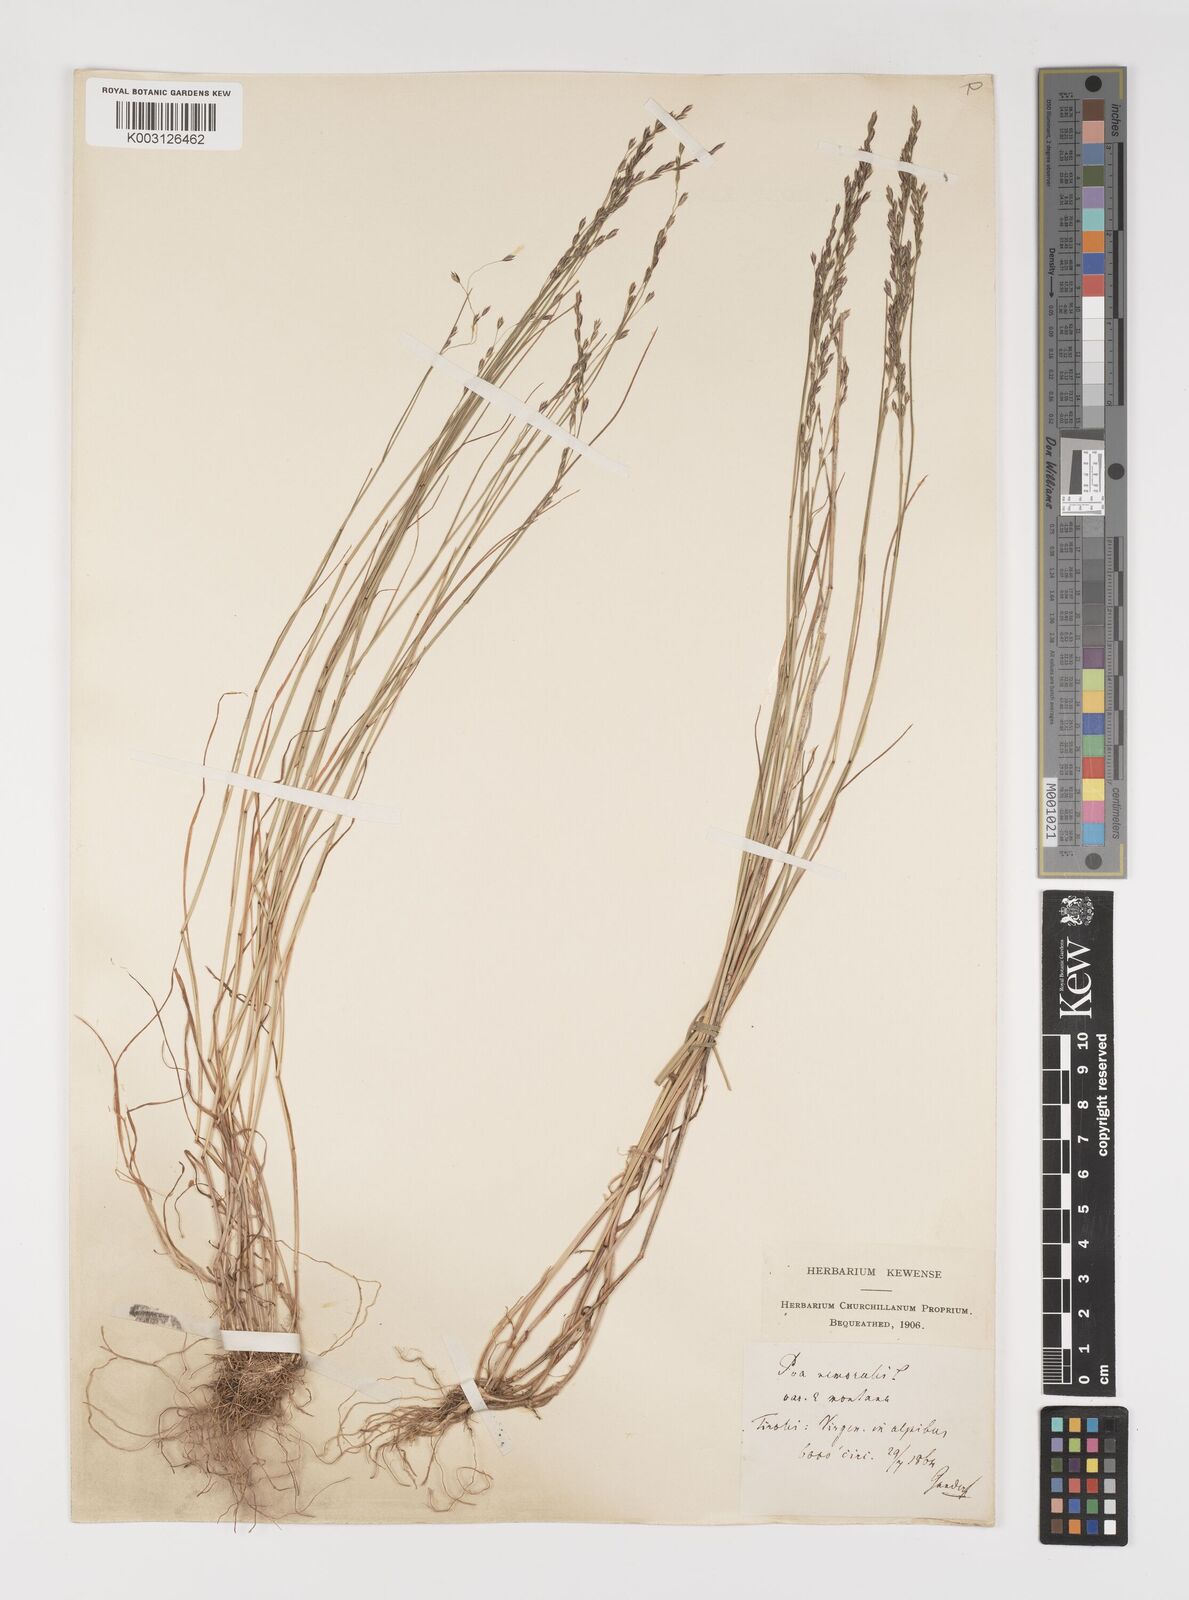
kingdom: Plantae
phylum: Tracheophyta
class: Liliopsida
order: Poales
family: Poaceae
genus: Poa
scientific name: Poa nemoralis
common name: Wood bluegrass
